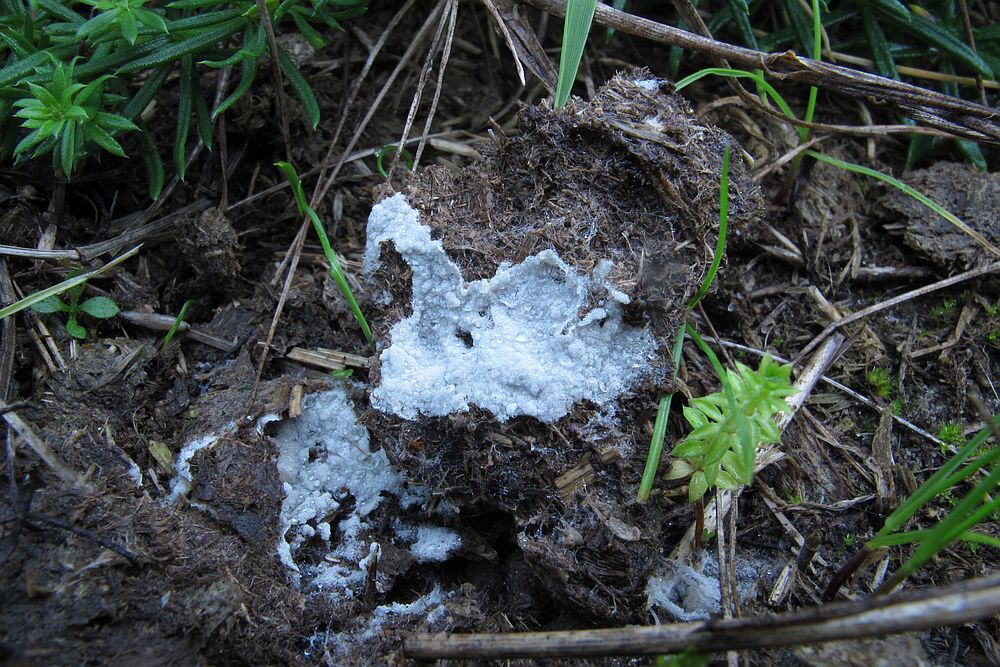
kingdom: Fungi
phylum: Basidiomycota
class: Agaricomycetes
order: Agaricales
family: Stephanosporaceae
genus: Cristinia
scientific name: Cristinia coprophila
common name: gødnings-citrushinde
